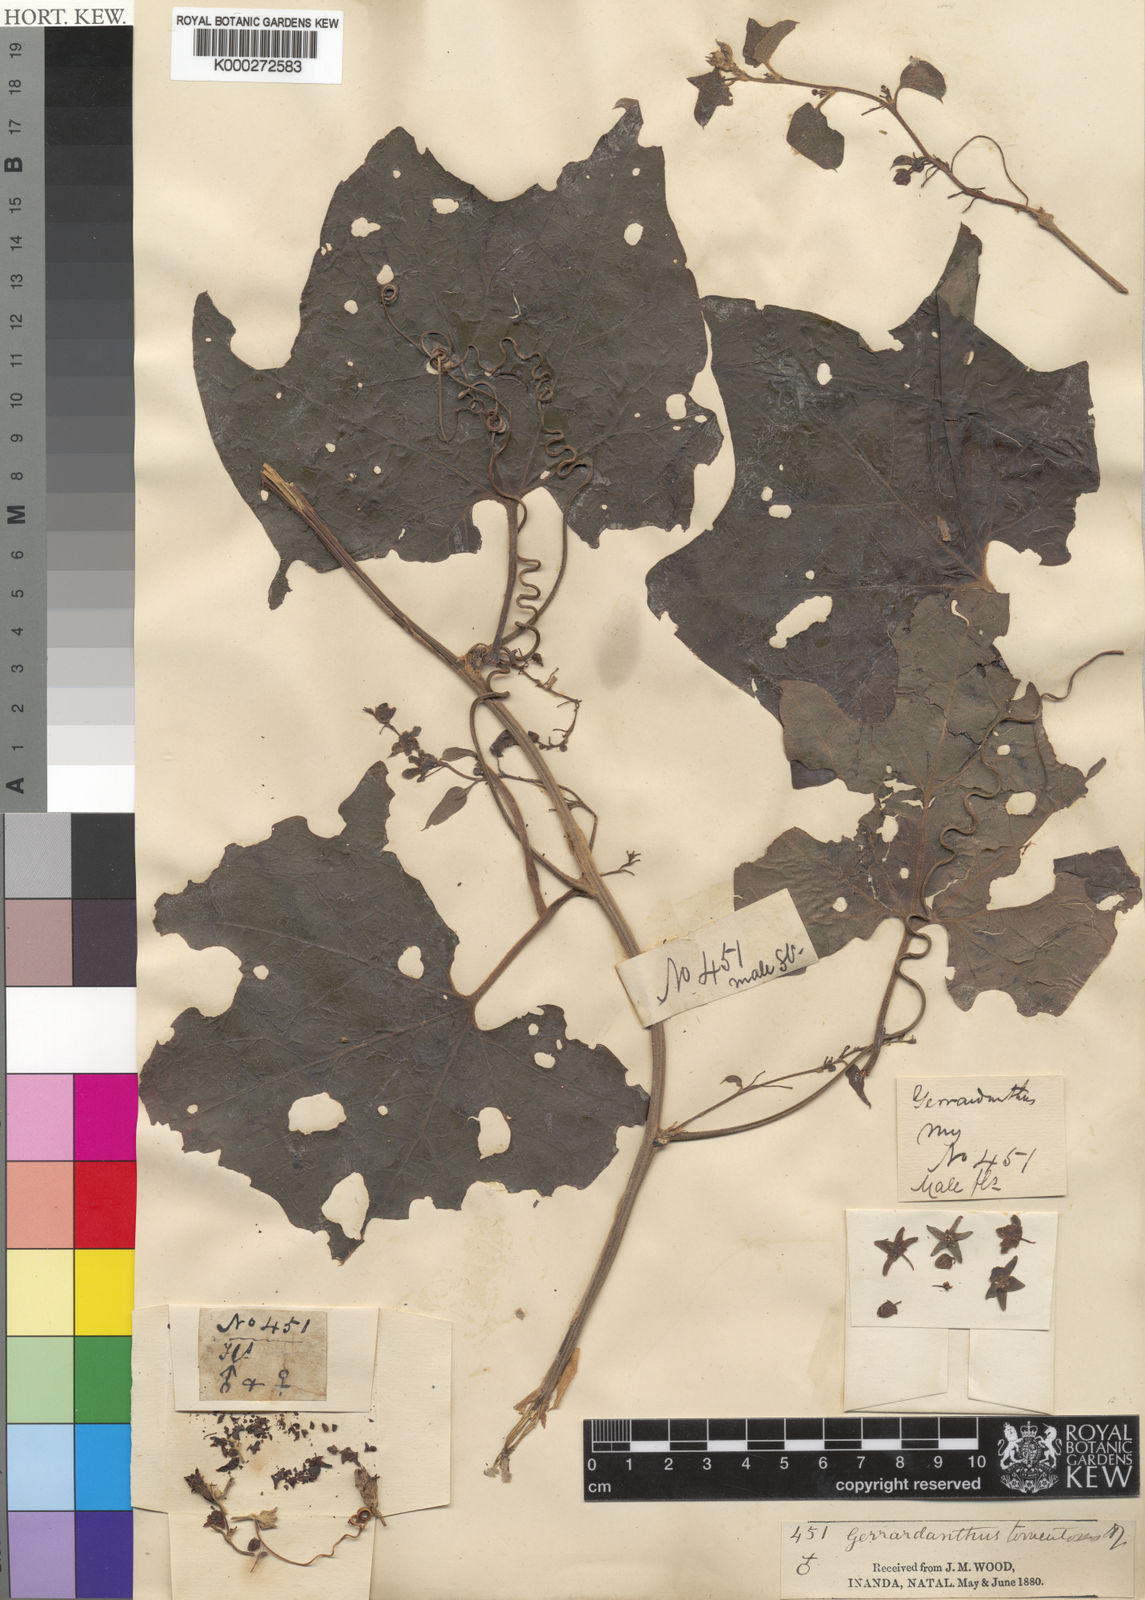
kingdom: Plantae
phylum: Tracheophyta
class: Magnoliopsida
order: Cucurbitales
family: Cucurbitaceae
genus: Gerrardanthus
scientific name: Gerrardanthus tomentosus
